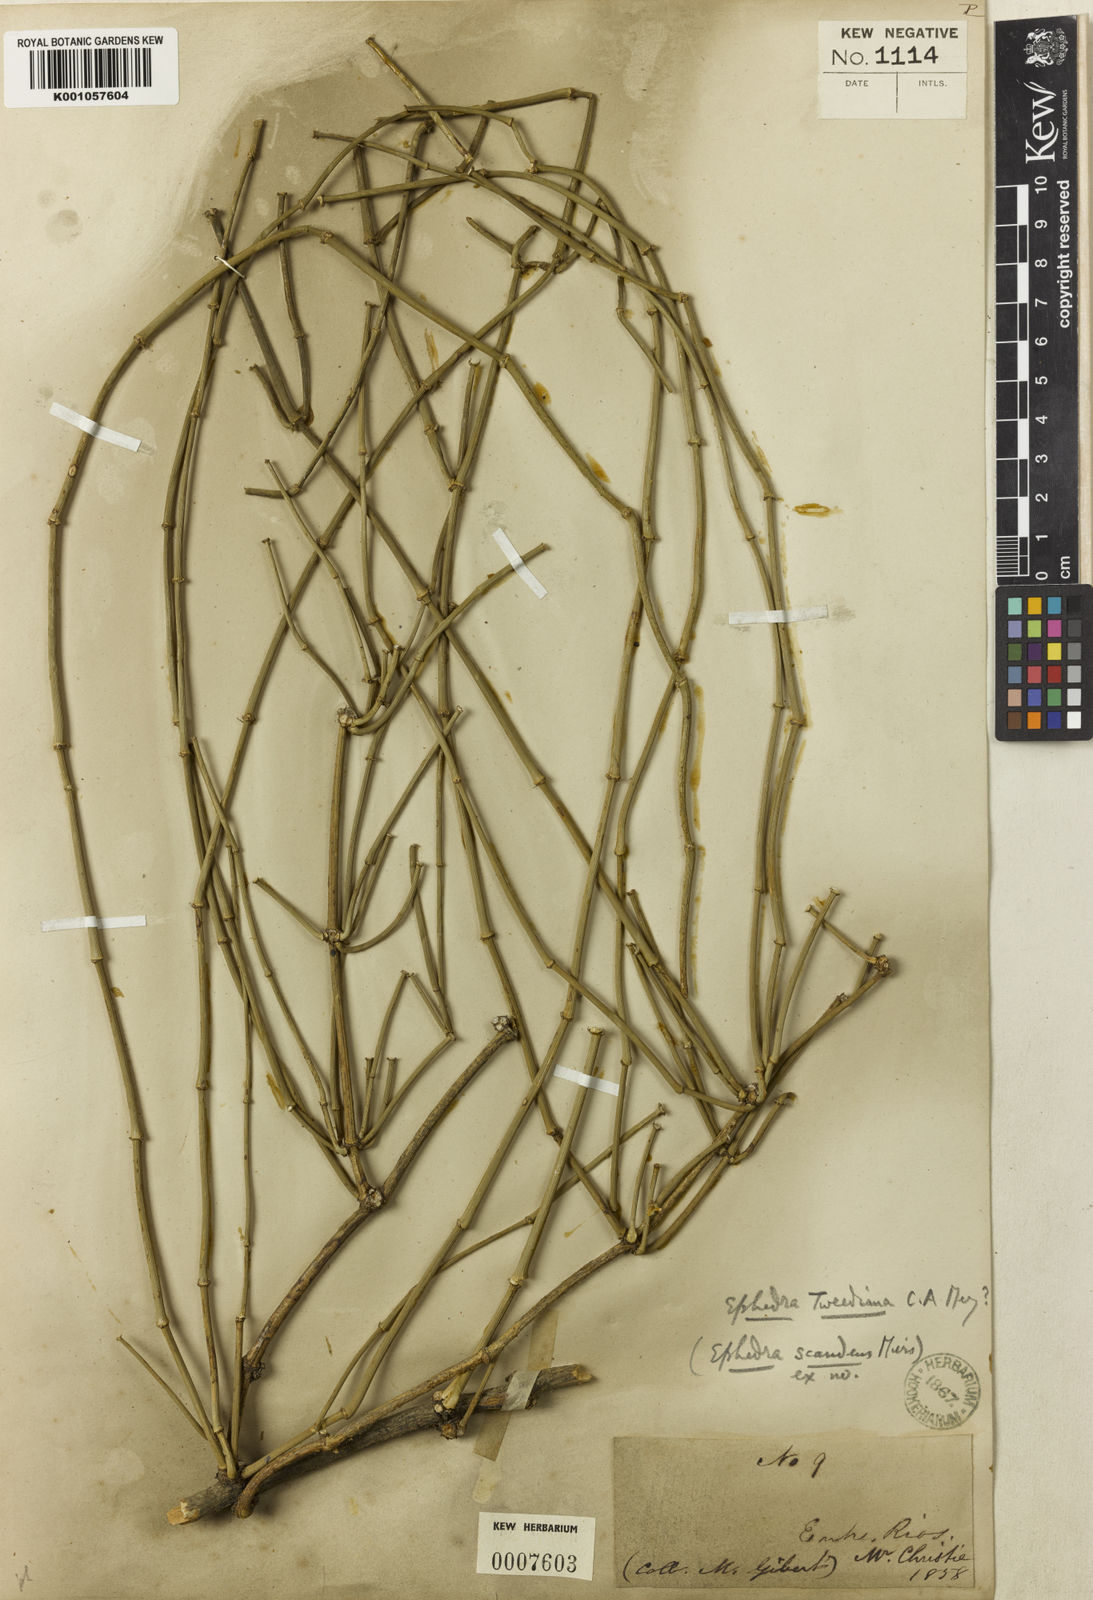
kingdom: Plantae
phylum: Tracheophyta
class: Gnetopsida
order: Ephedrales
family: Ephedraceae
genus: Ephedra
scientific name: Ephedra tweedieana
